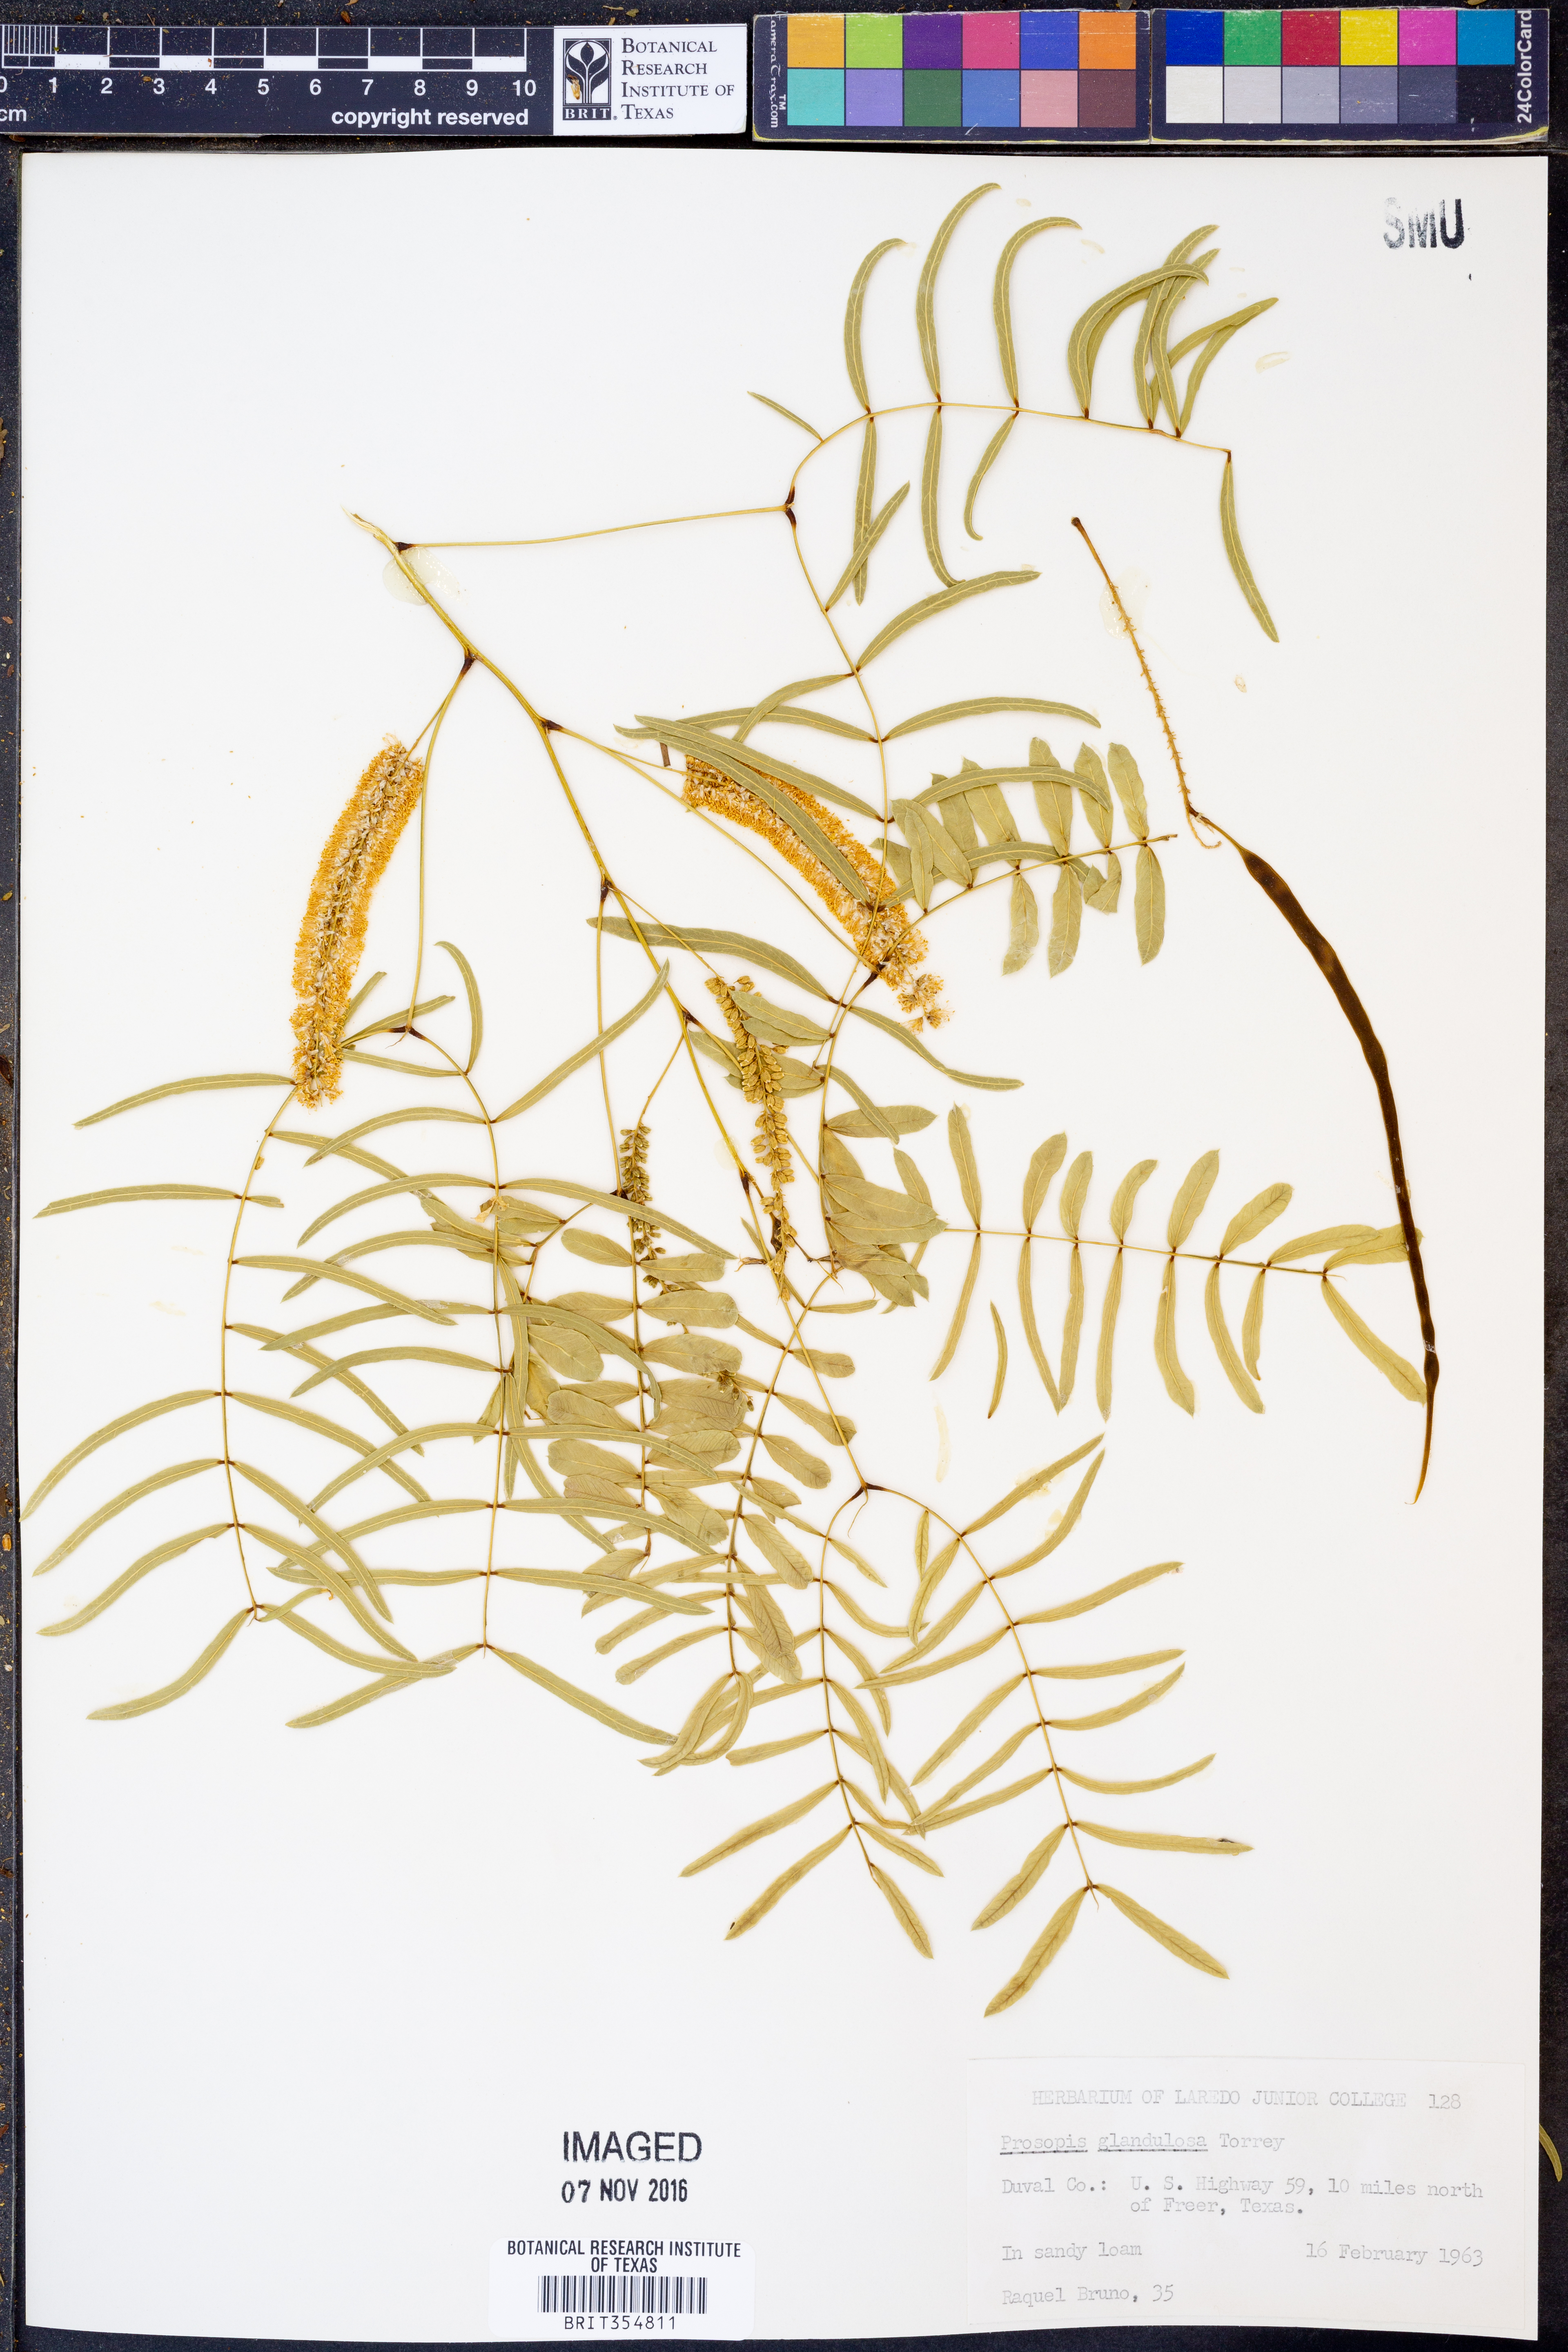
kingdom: Plantae
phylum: Tracheophyta
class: Magnoliopsida
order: Fabales
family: Fabaceae
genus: Prosopis
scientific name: Prosopis glandulosa
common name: Honey mesquite
